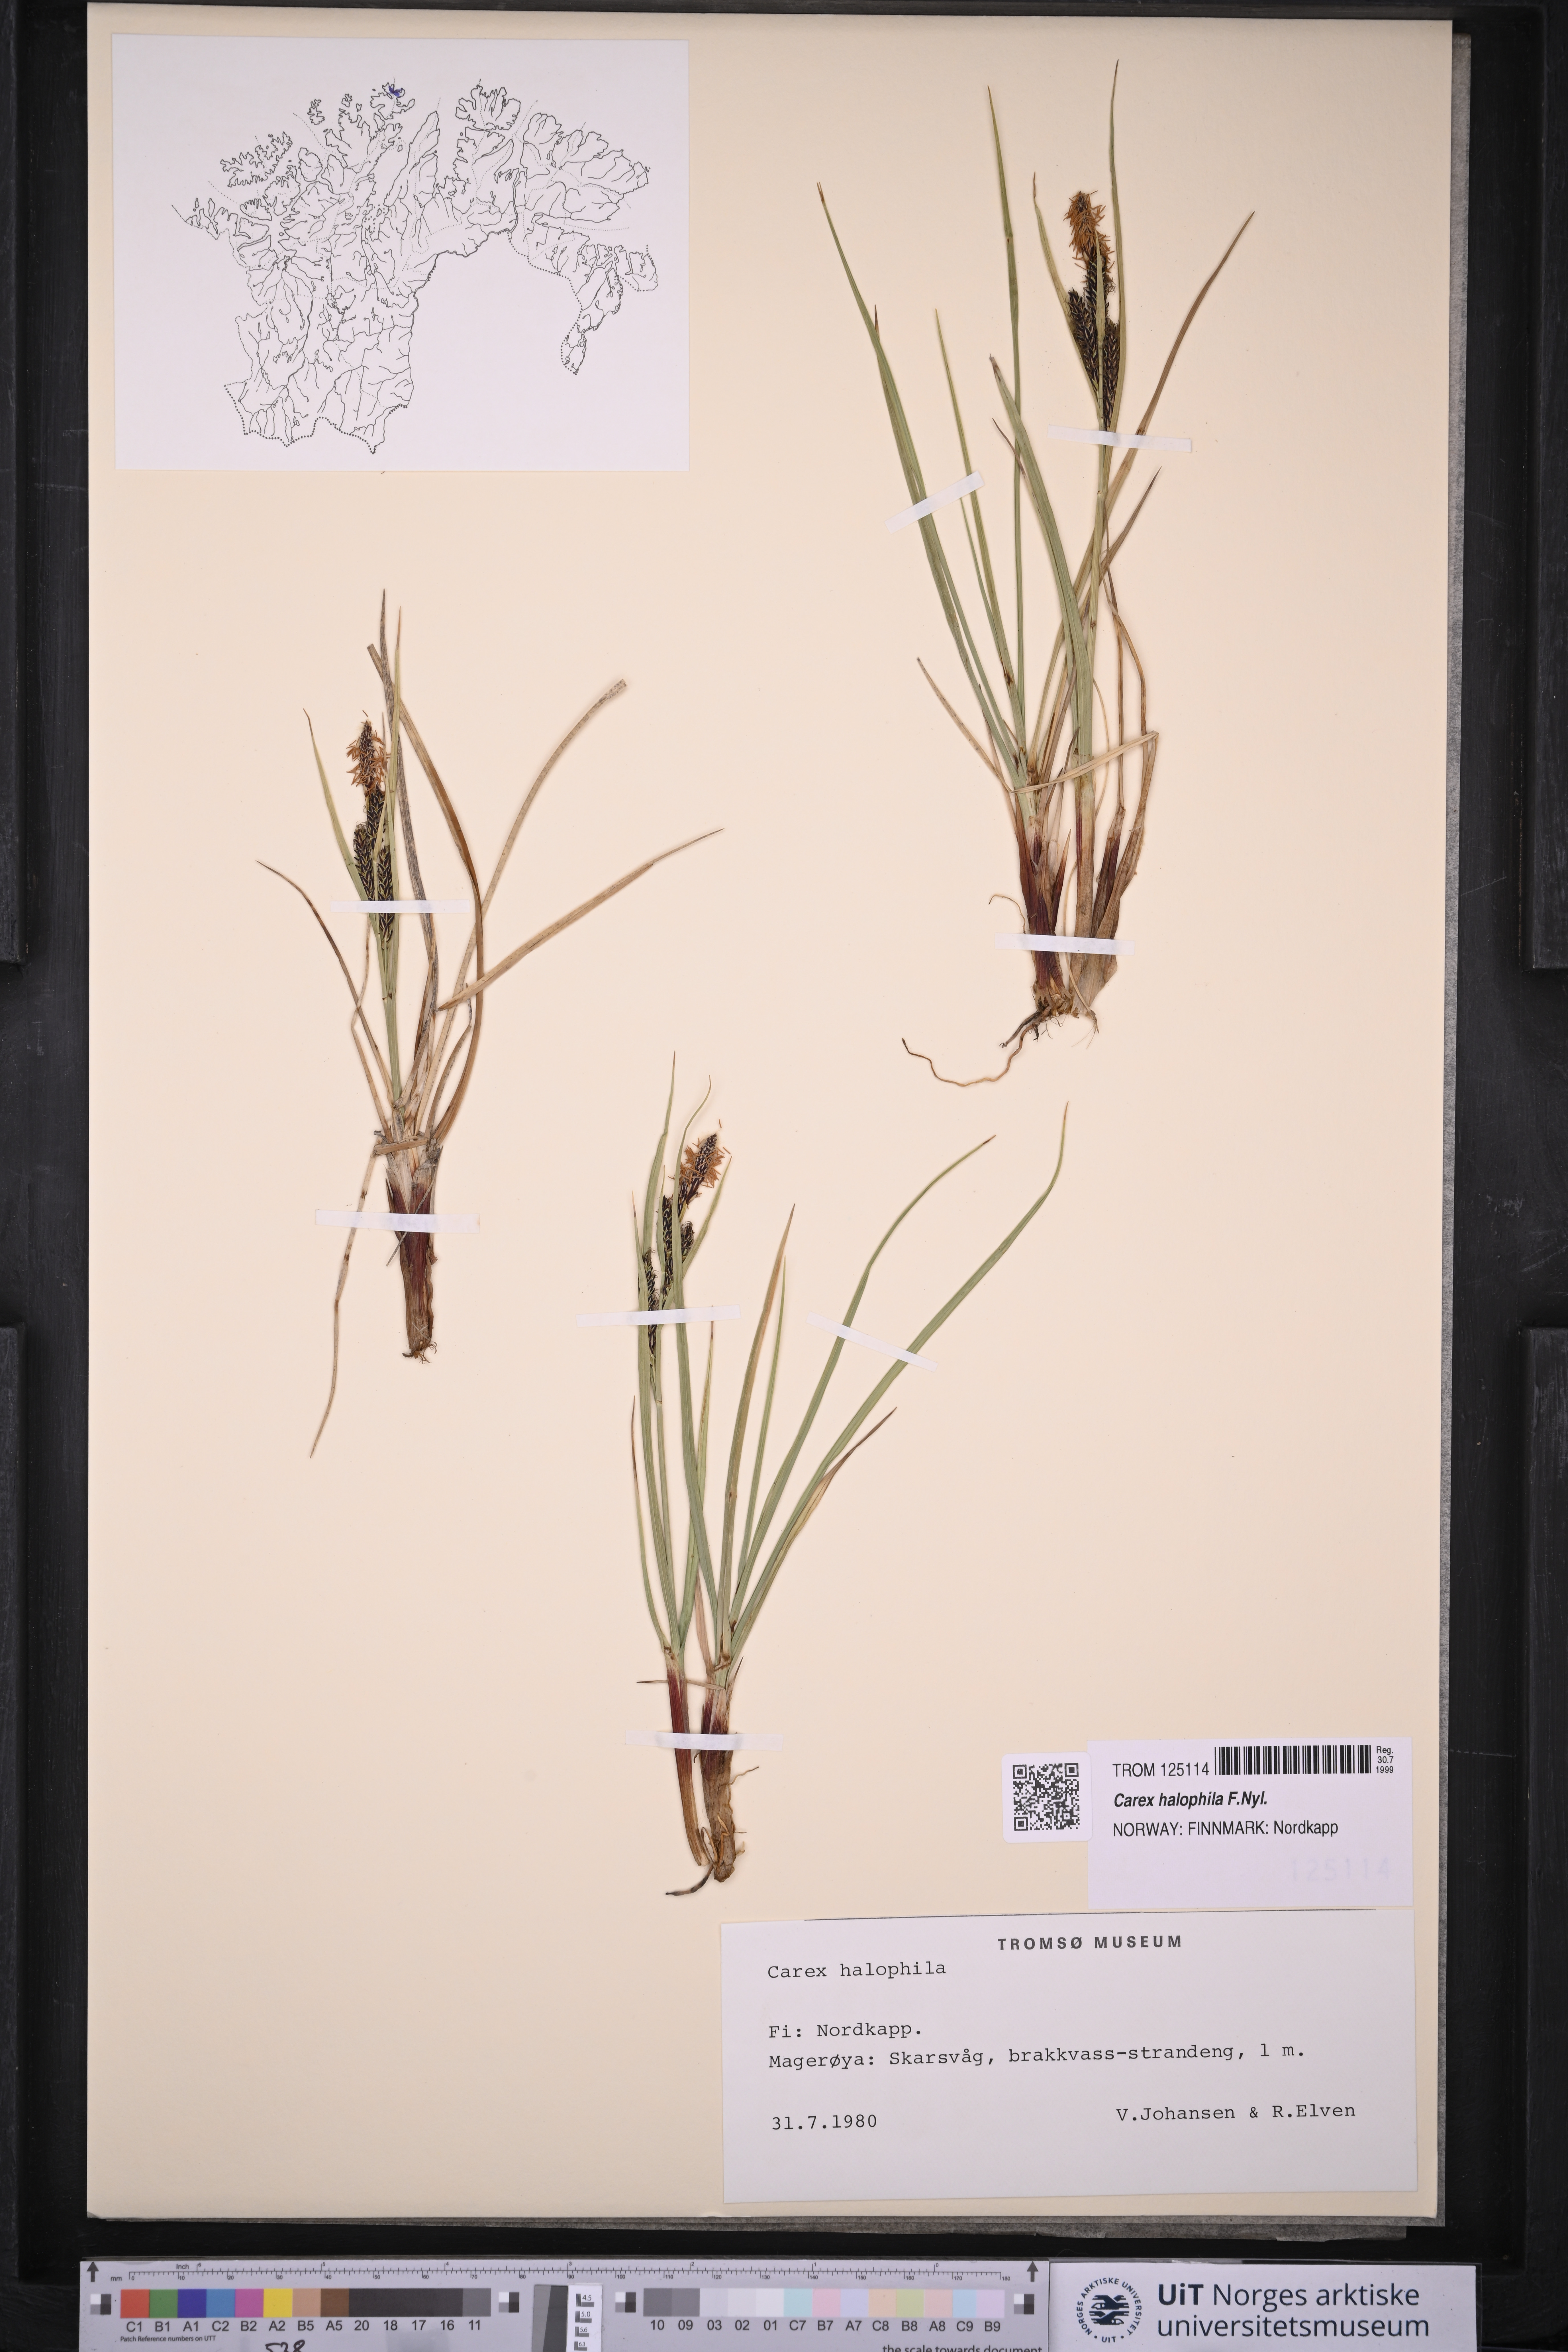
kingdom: Plantae
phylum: Tracheophyta
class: Liliopsida
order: Poales
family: Cyperaceae
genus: Carex
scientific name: Carex halophila
